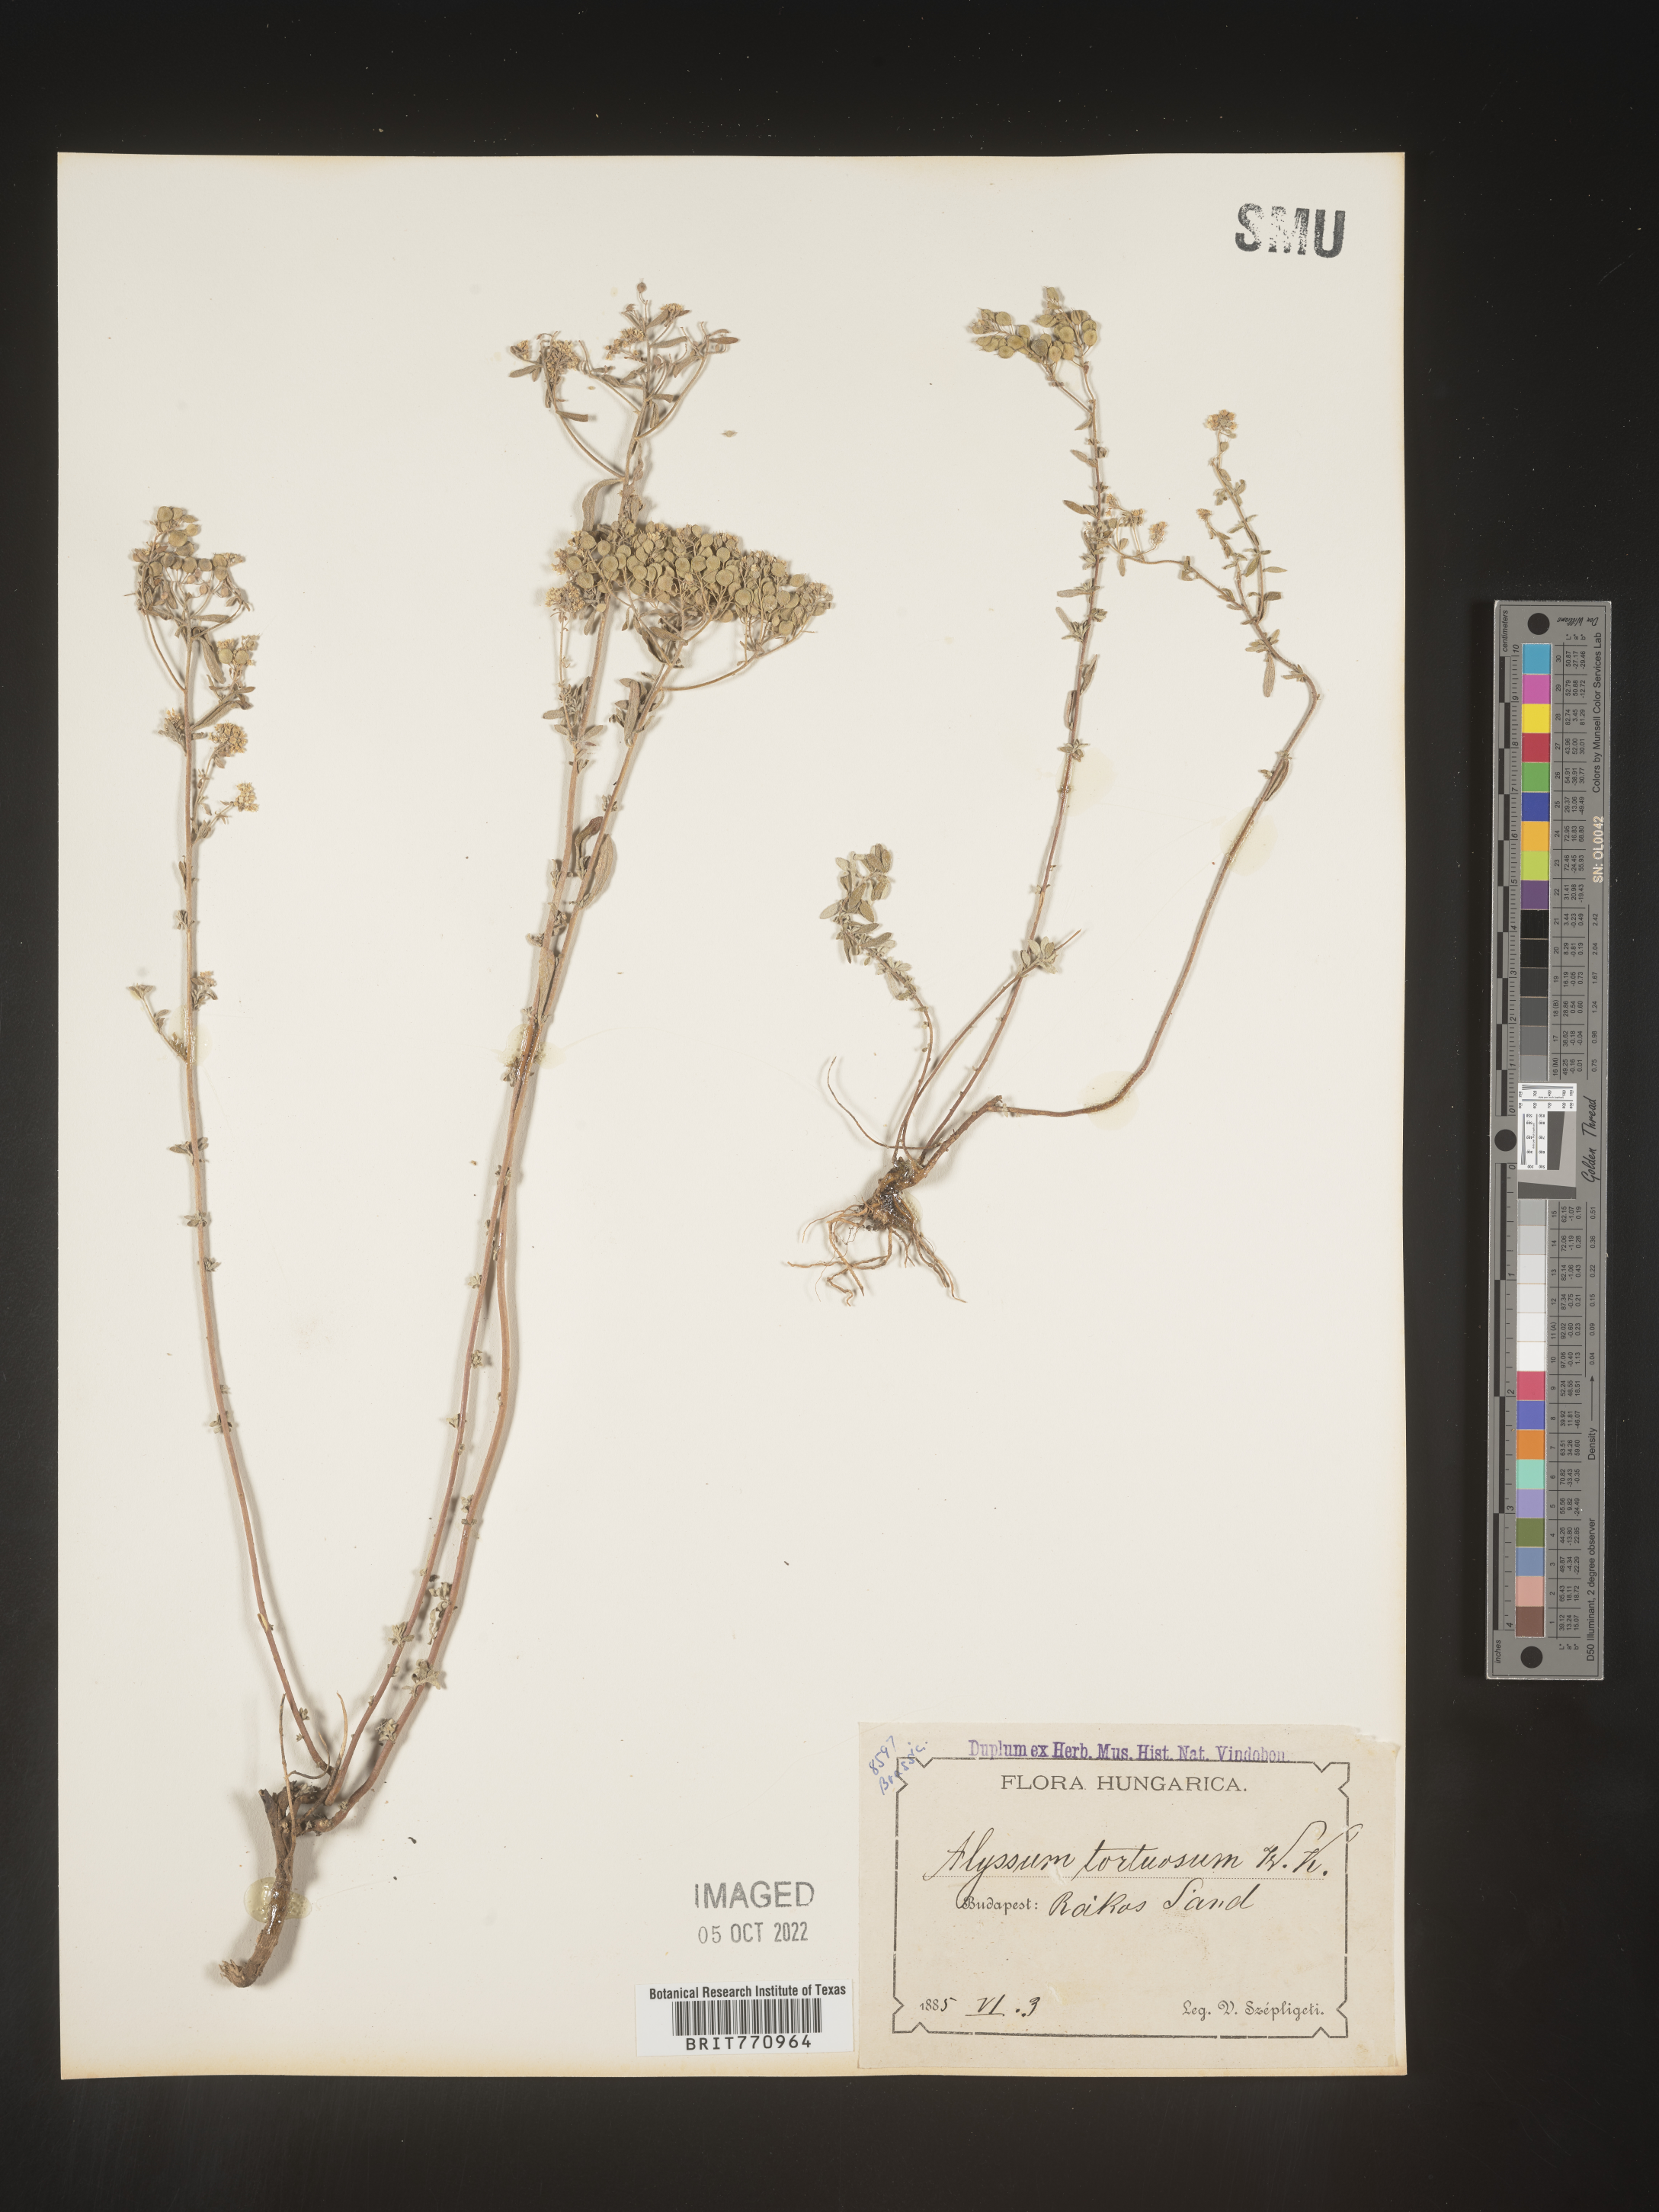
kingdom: Plantae
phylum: Tracheophyta
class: Magnoliopsida
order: Brassicales
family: Brassicaceae
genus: Alyssum
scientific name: Alyssum
